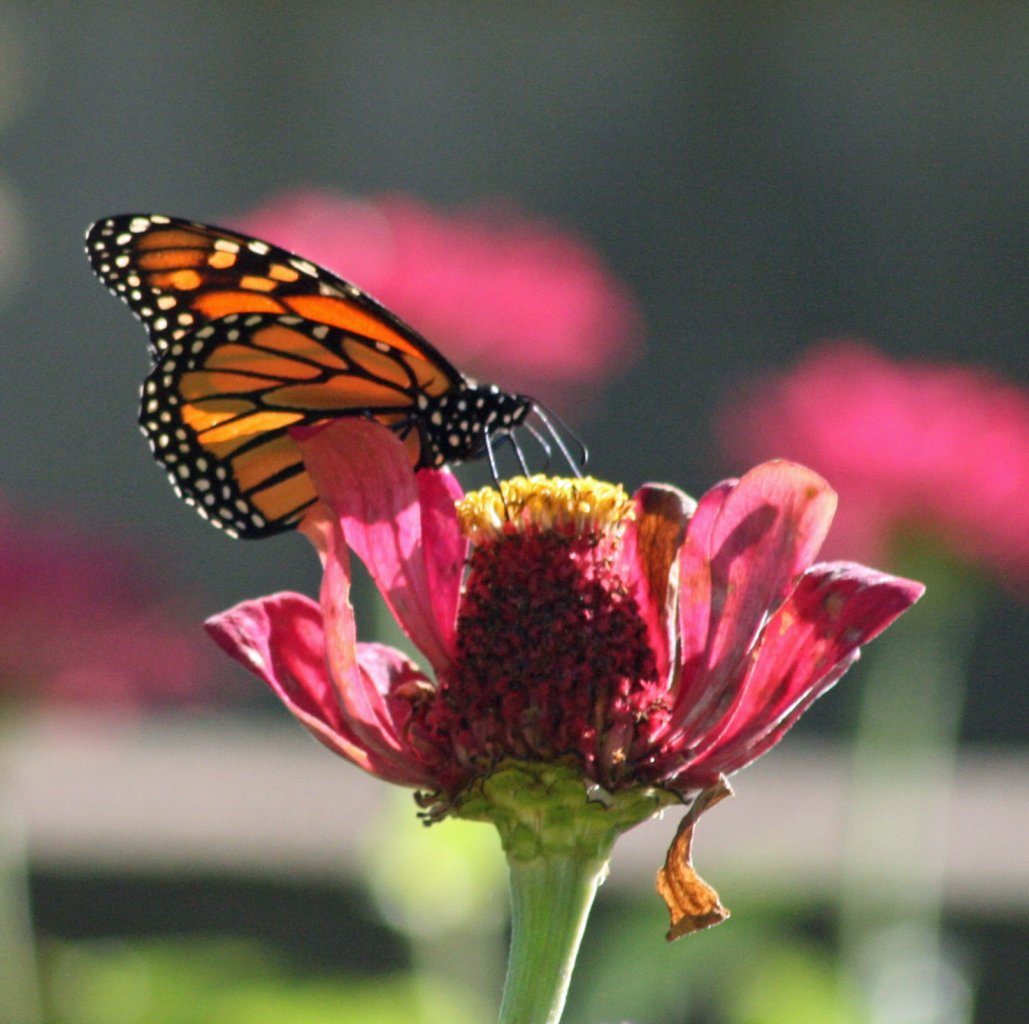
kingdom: Animalia
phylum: Arthropoda
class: Insecta
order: Lepidoptera
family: Nymphalidae
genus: Danaus
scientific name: Danaus plexippus
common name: Monarch
